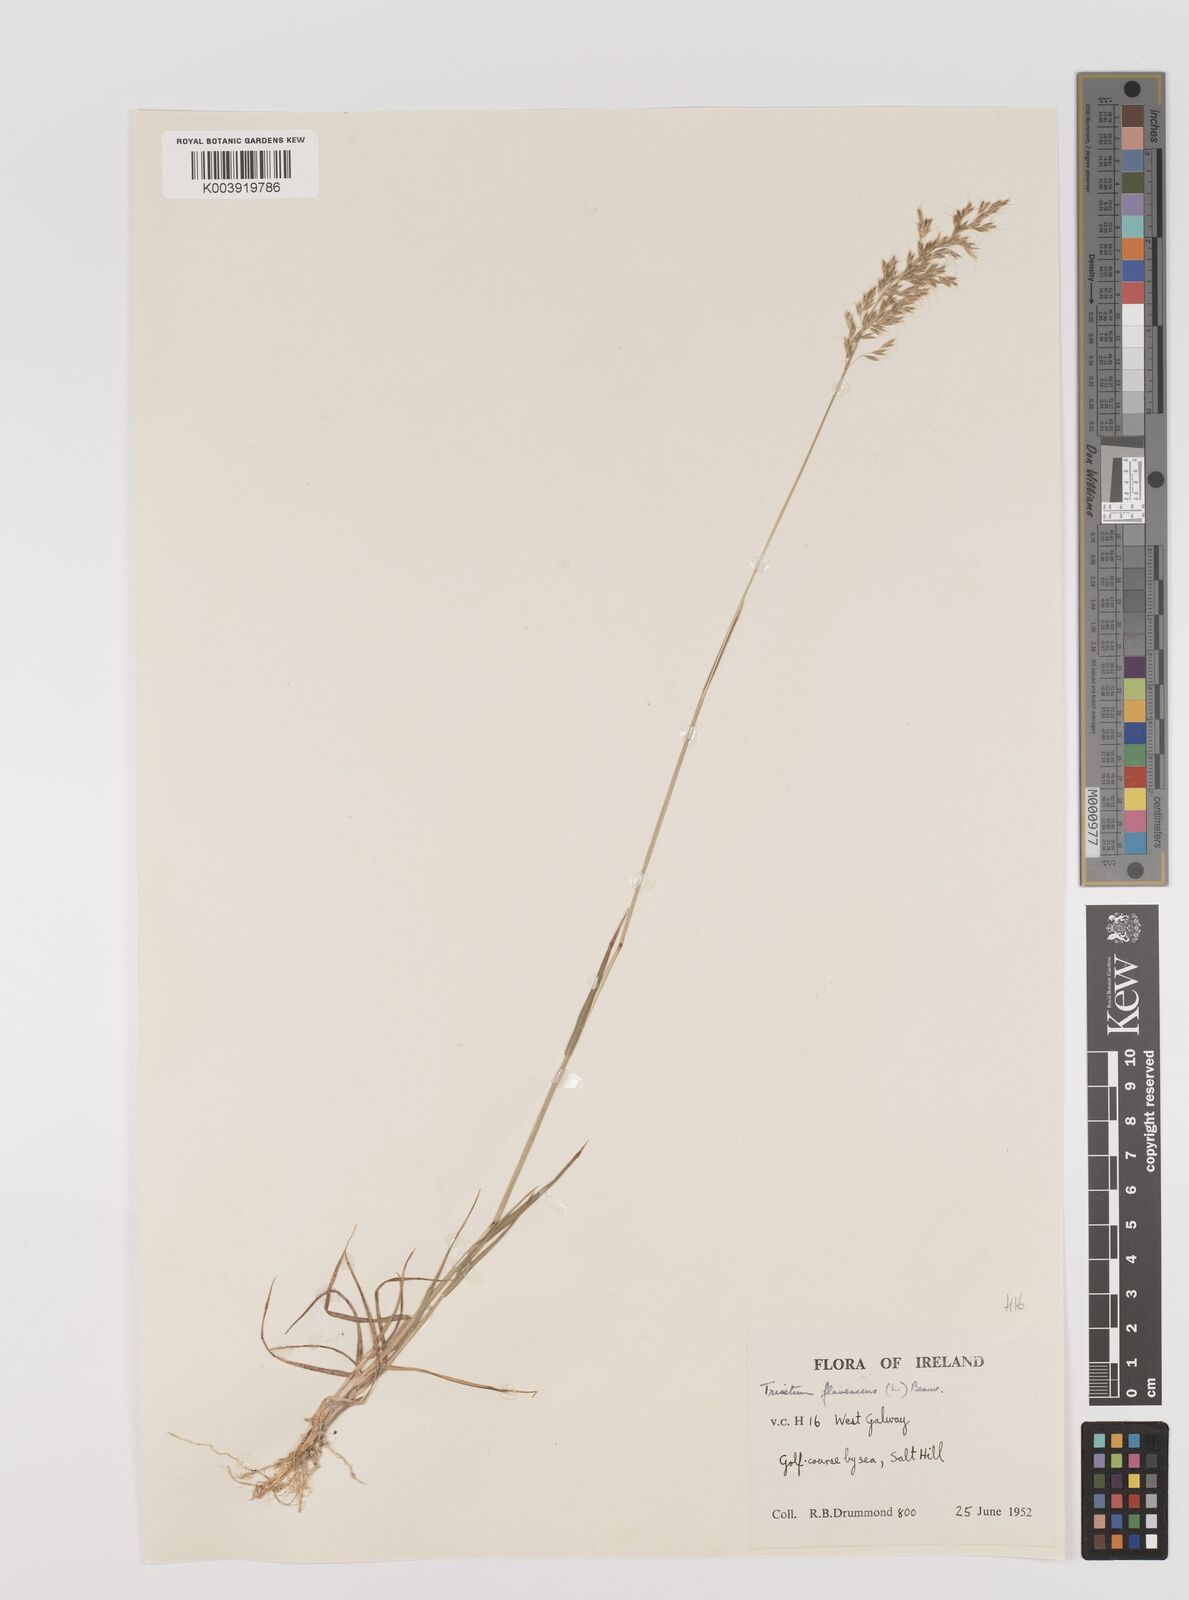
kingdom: Plantae
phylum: Tracheophyta
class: Liliopsida
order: Poales
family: Poaceae
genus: Trisetum
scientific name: Trisetum flavescens
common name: Yellow oat-grass
